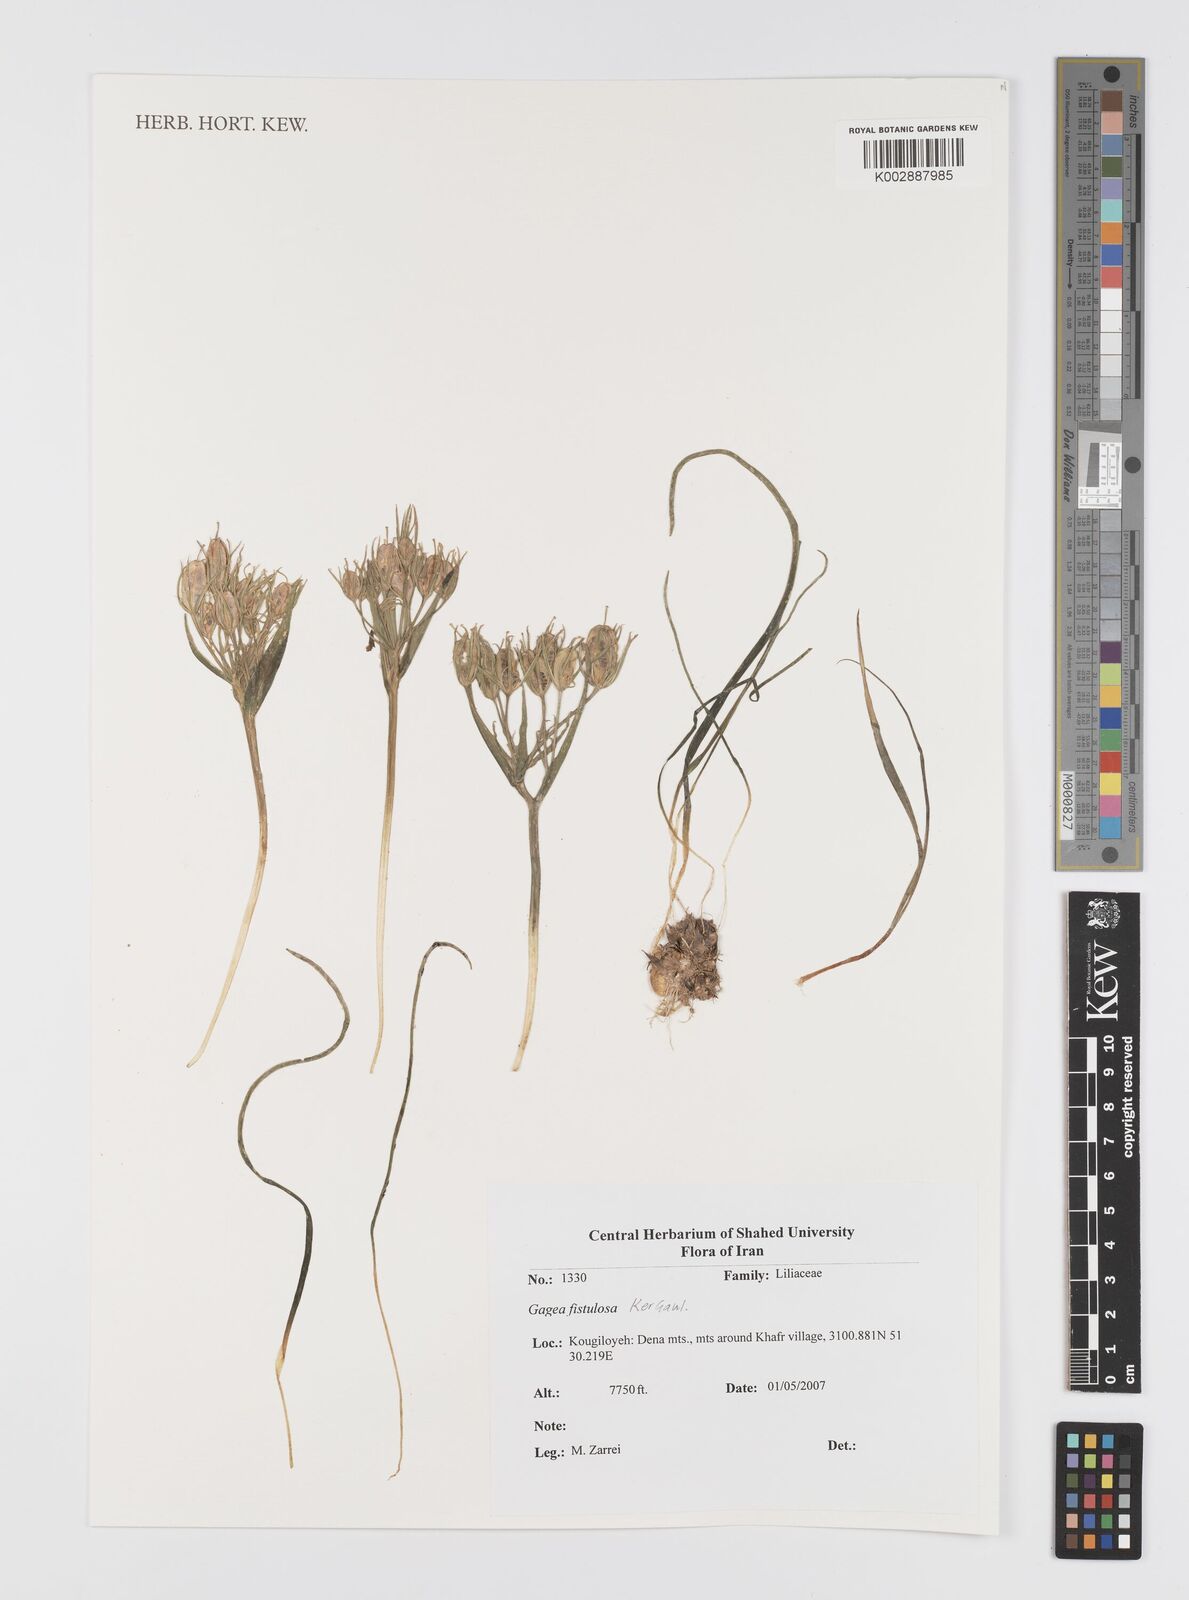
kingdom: Plantae
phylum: Tracheophyta
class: Liliopsida
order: Liliales
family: Liliaceae
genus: Gagea
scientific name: Gagea bohemica
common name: Early star-of-bethlehem
